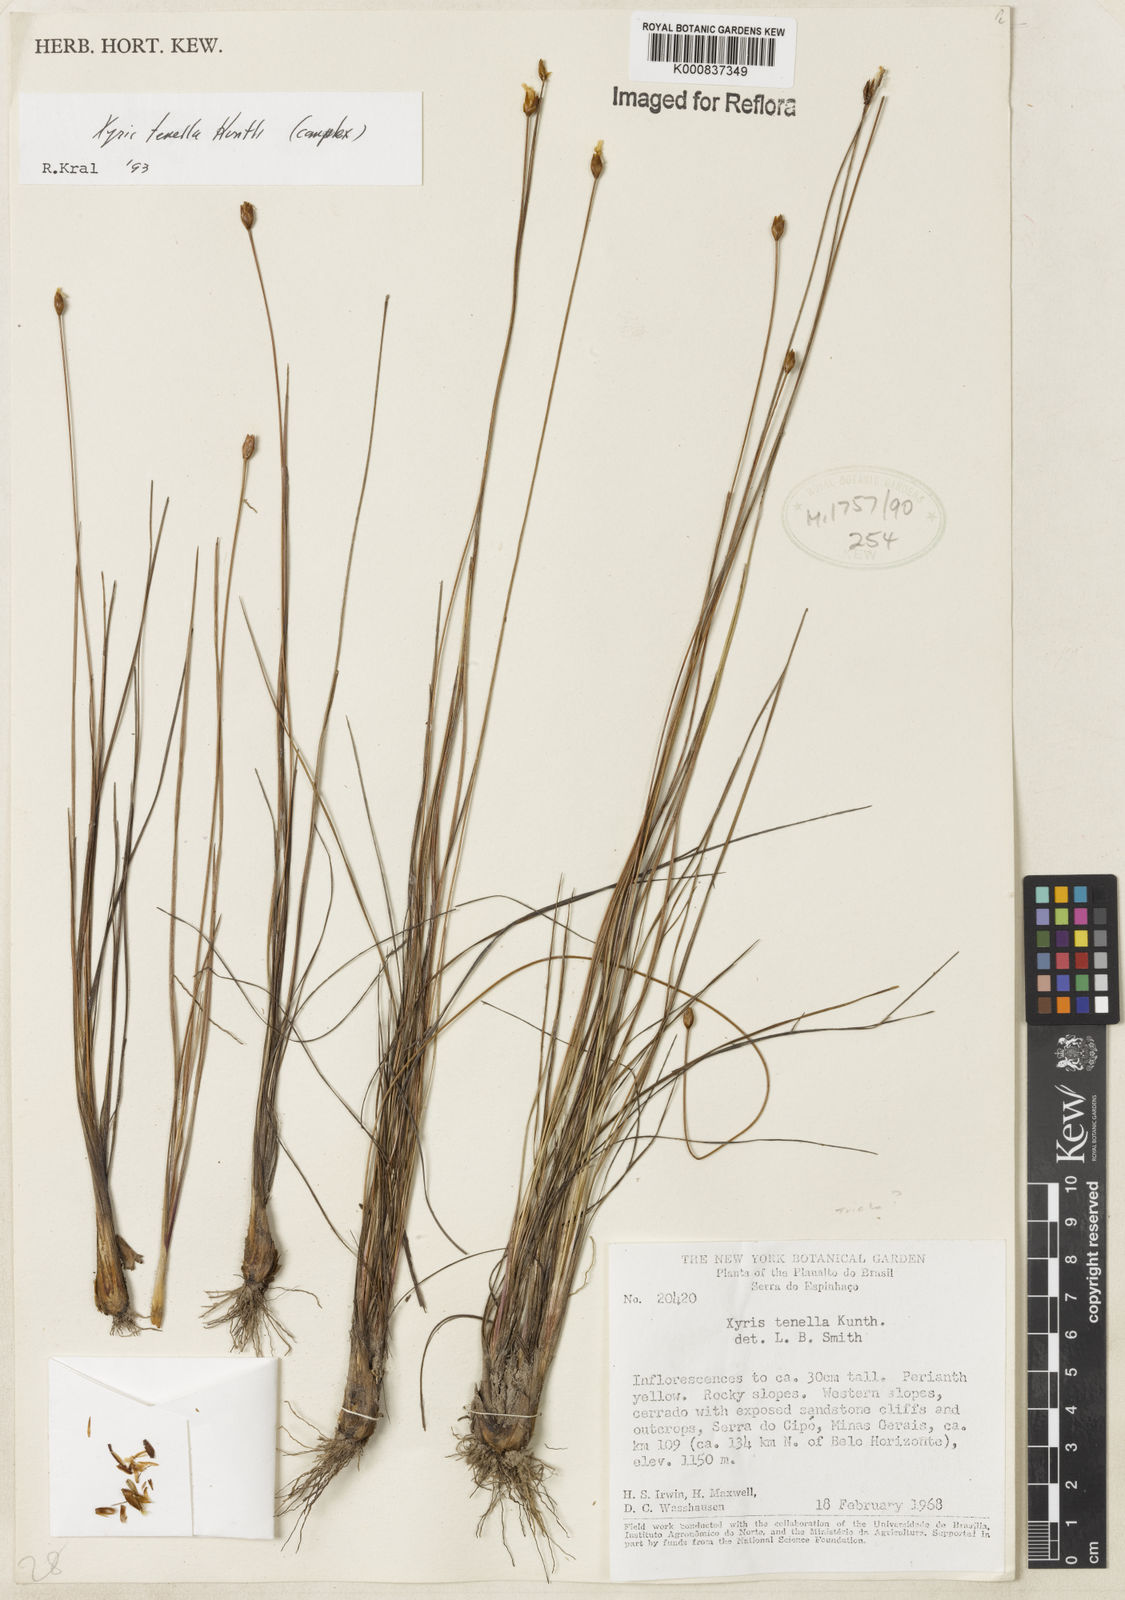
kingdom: Plantae
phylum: Tracheophyta
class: Liliopsida
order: Poales
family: Xyridaceae
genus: Xyris
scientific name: Xyris tenella
